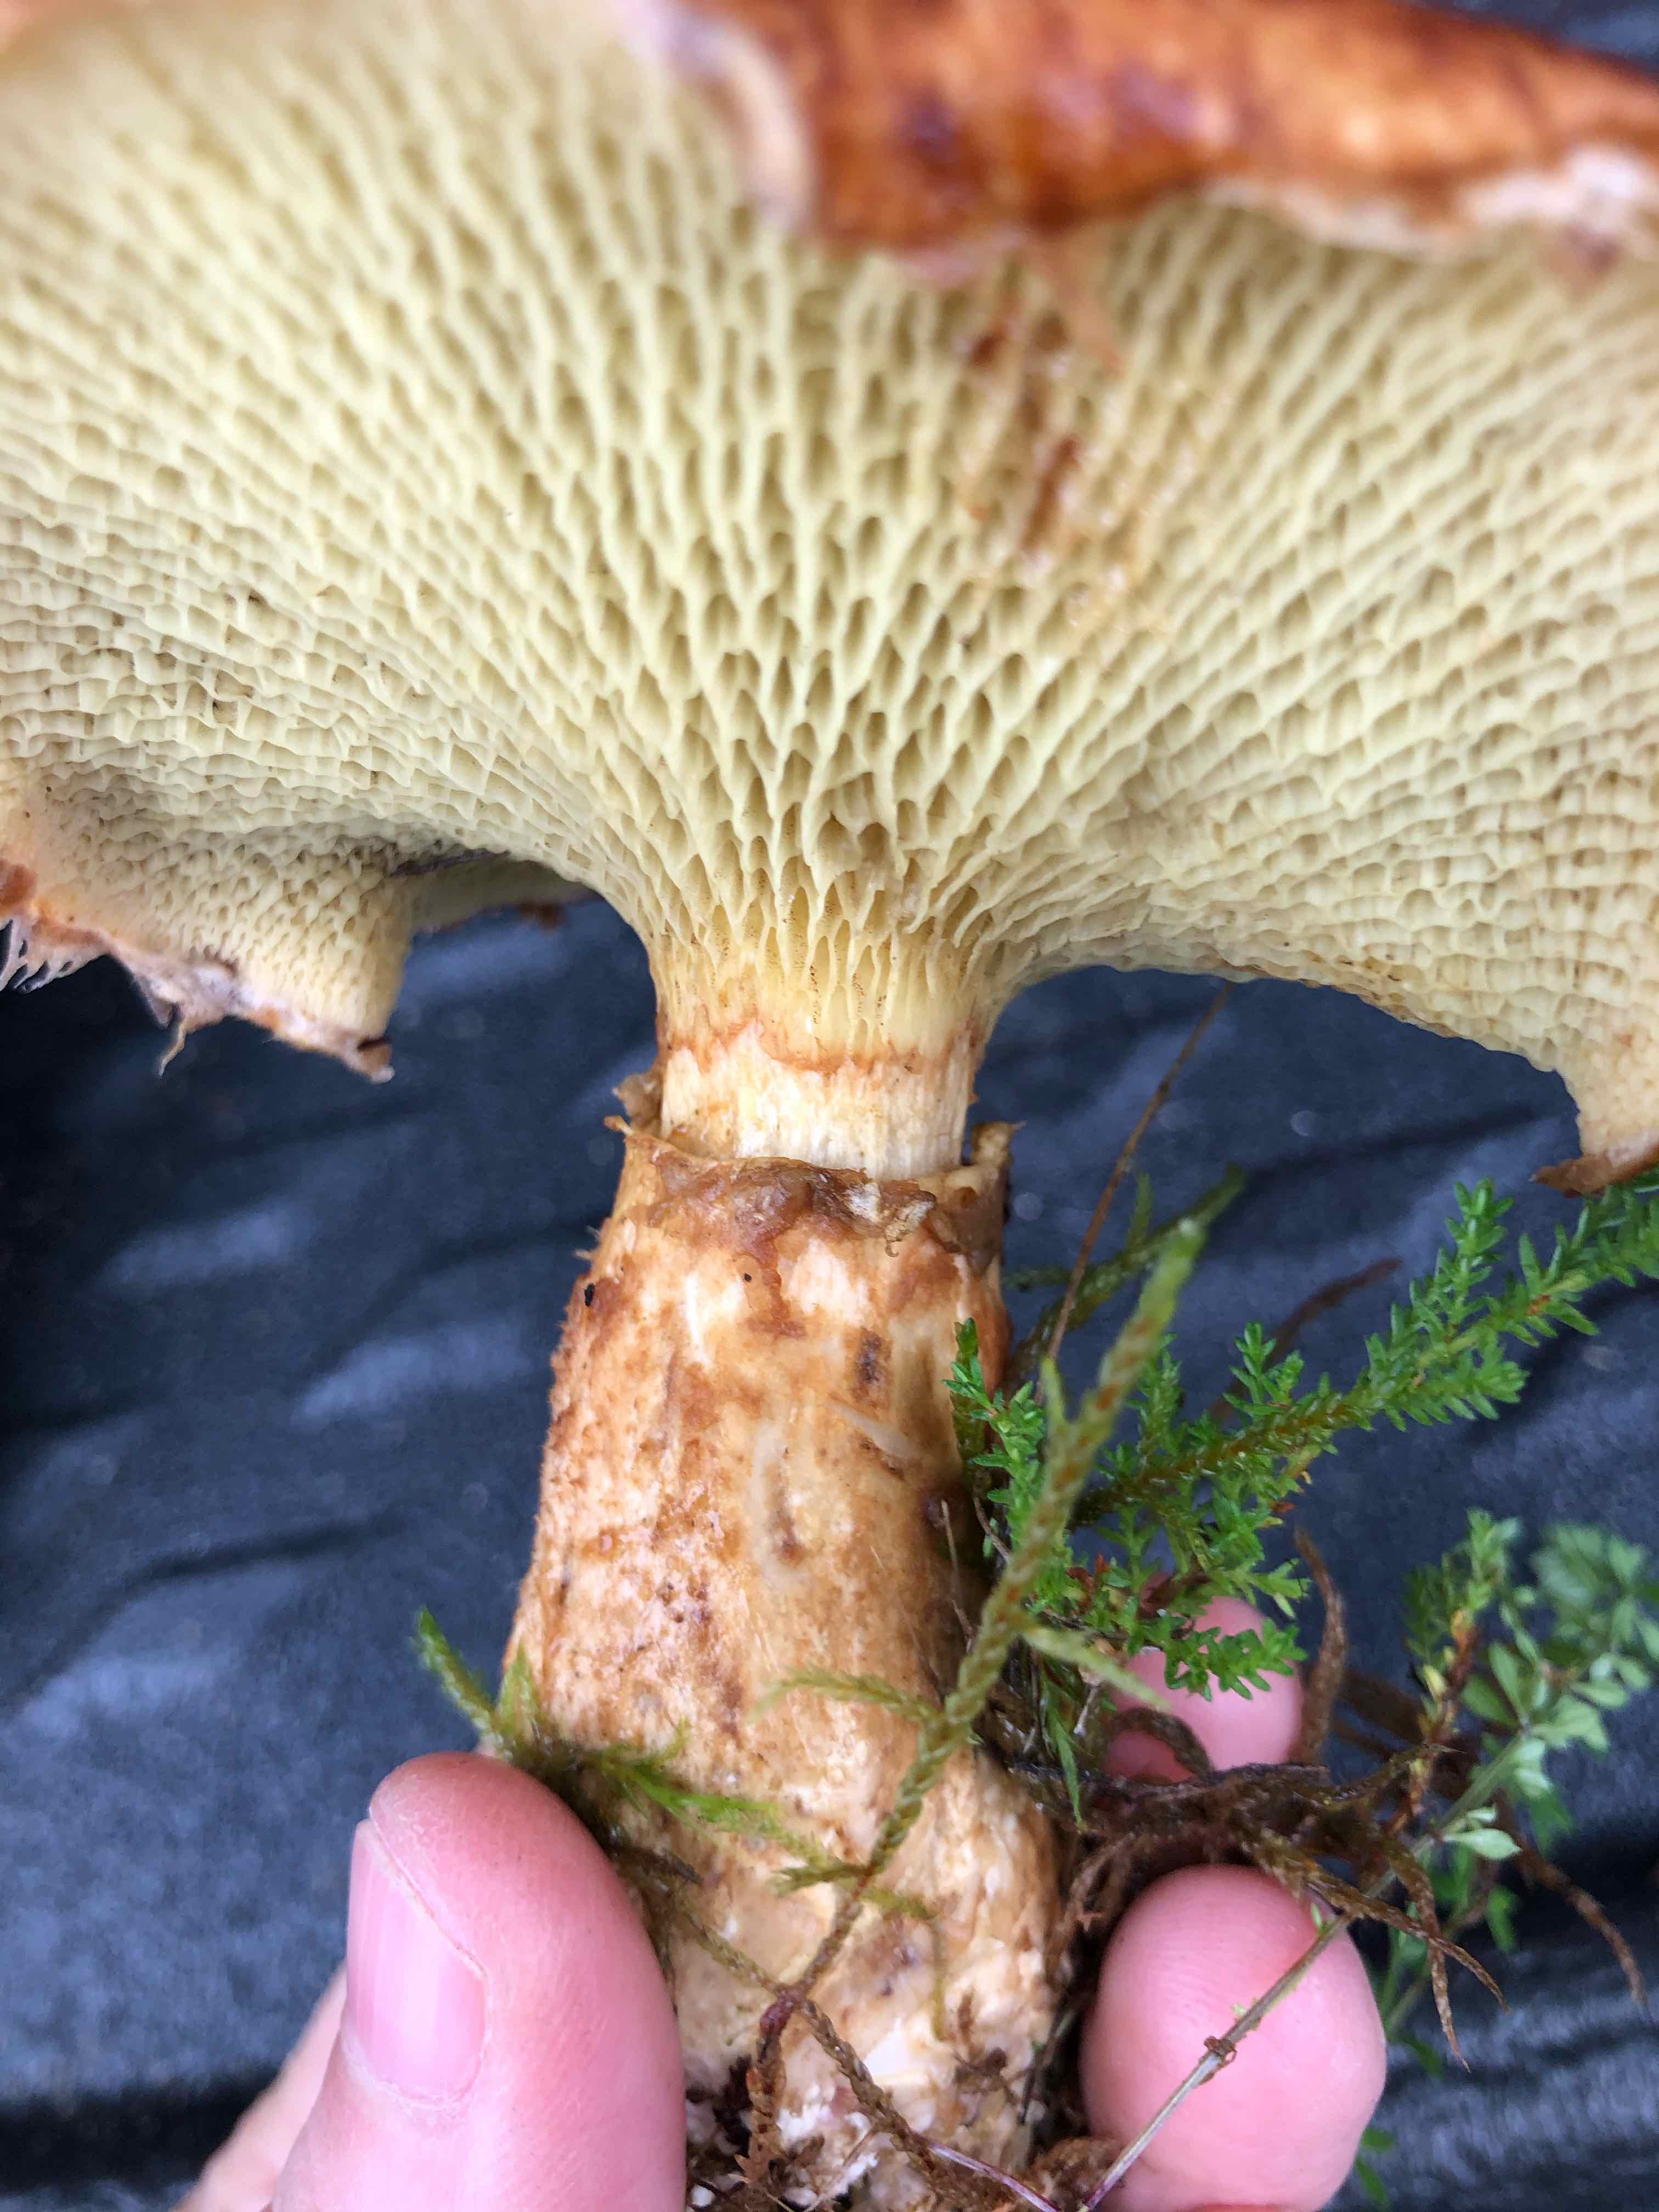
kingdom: Fungi
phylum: Basidiomycota
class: Agaricomycetes
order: Boletales
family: Suillaceae
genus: Suillus
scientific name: Suillus cavipes
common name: hulstokket slimrørhat
